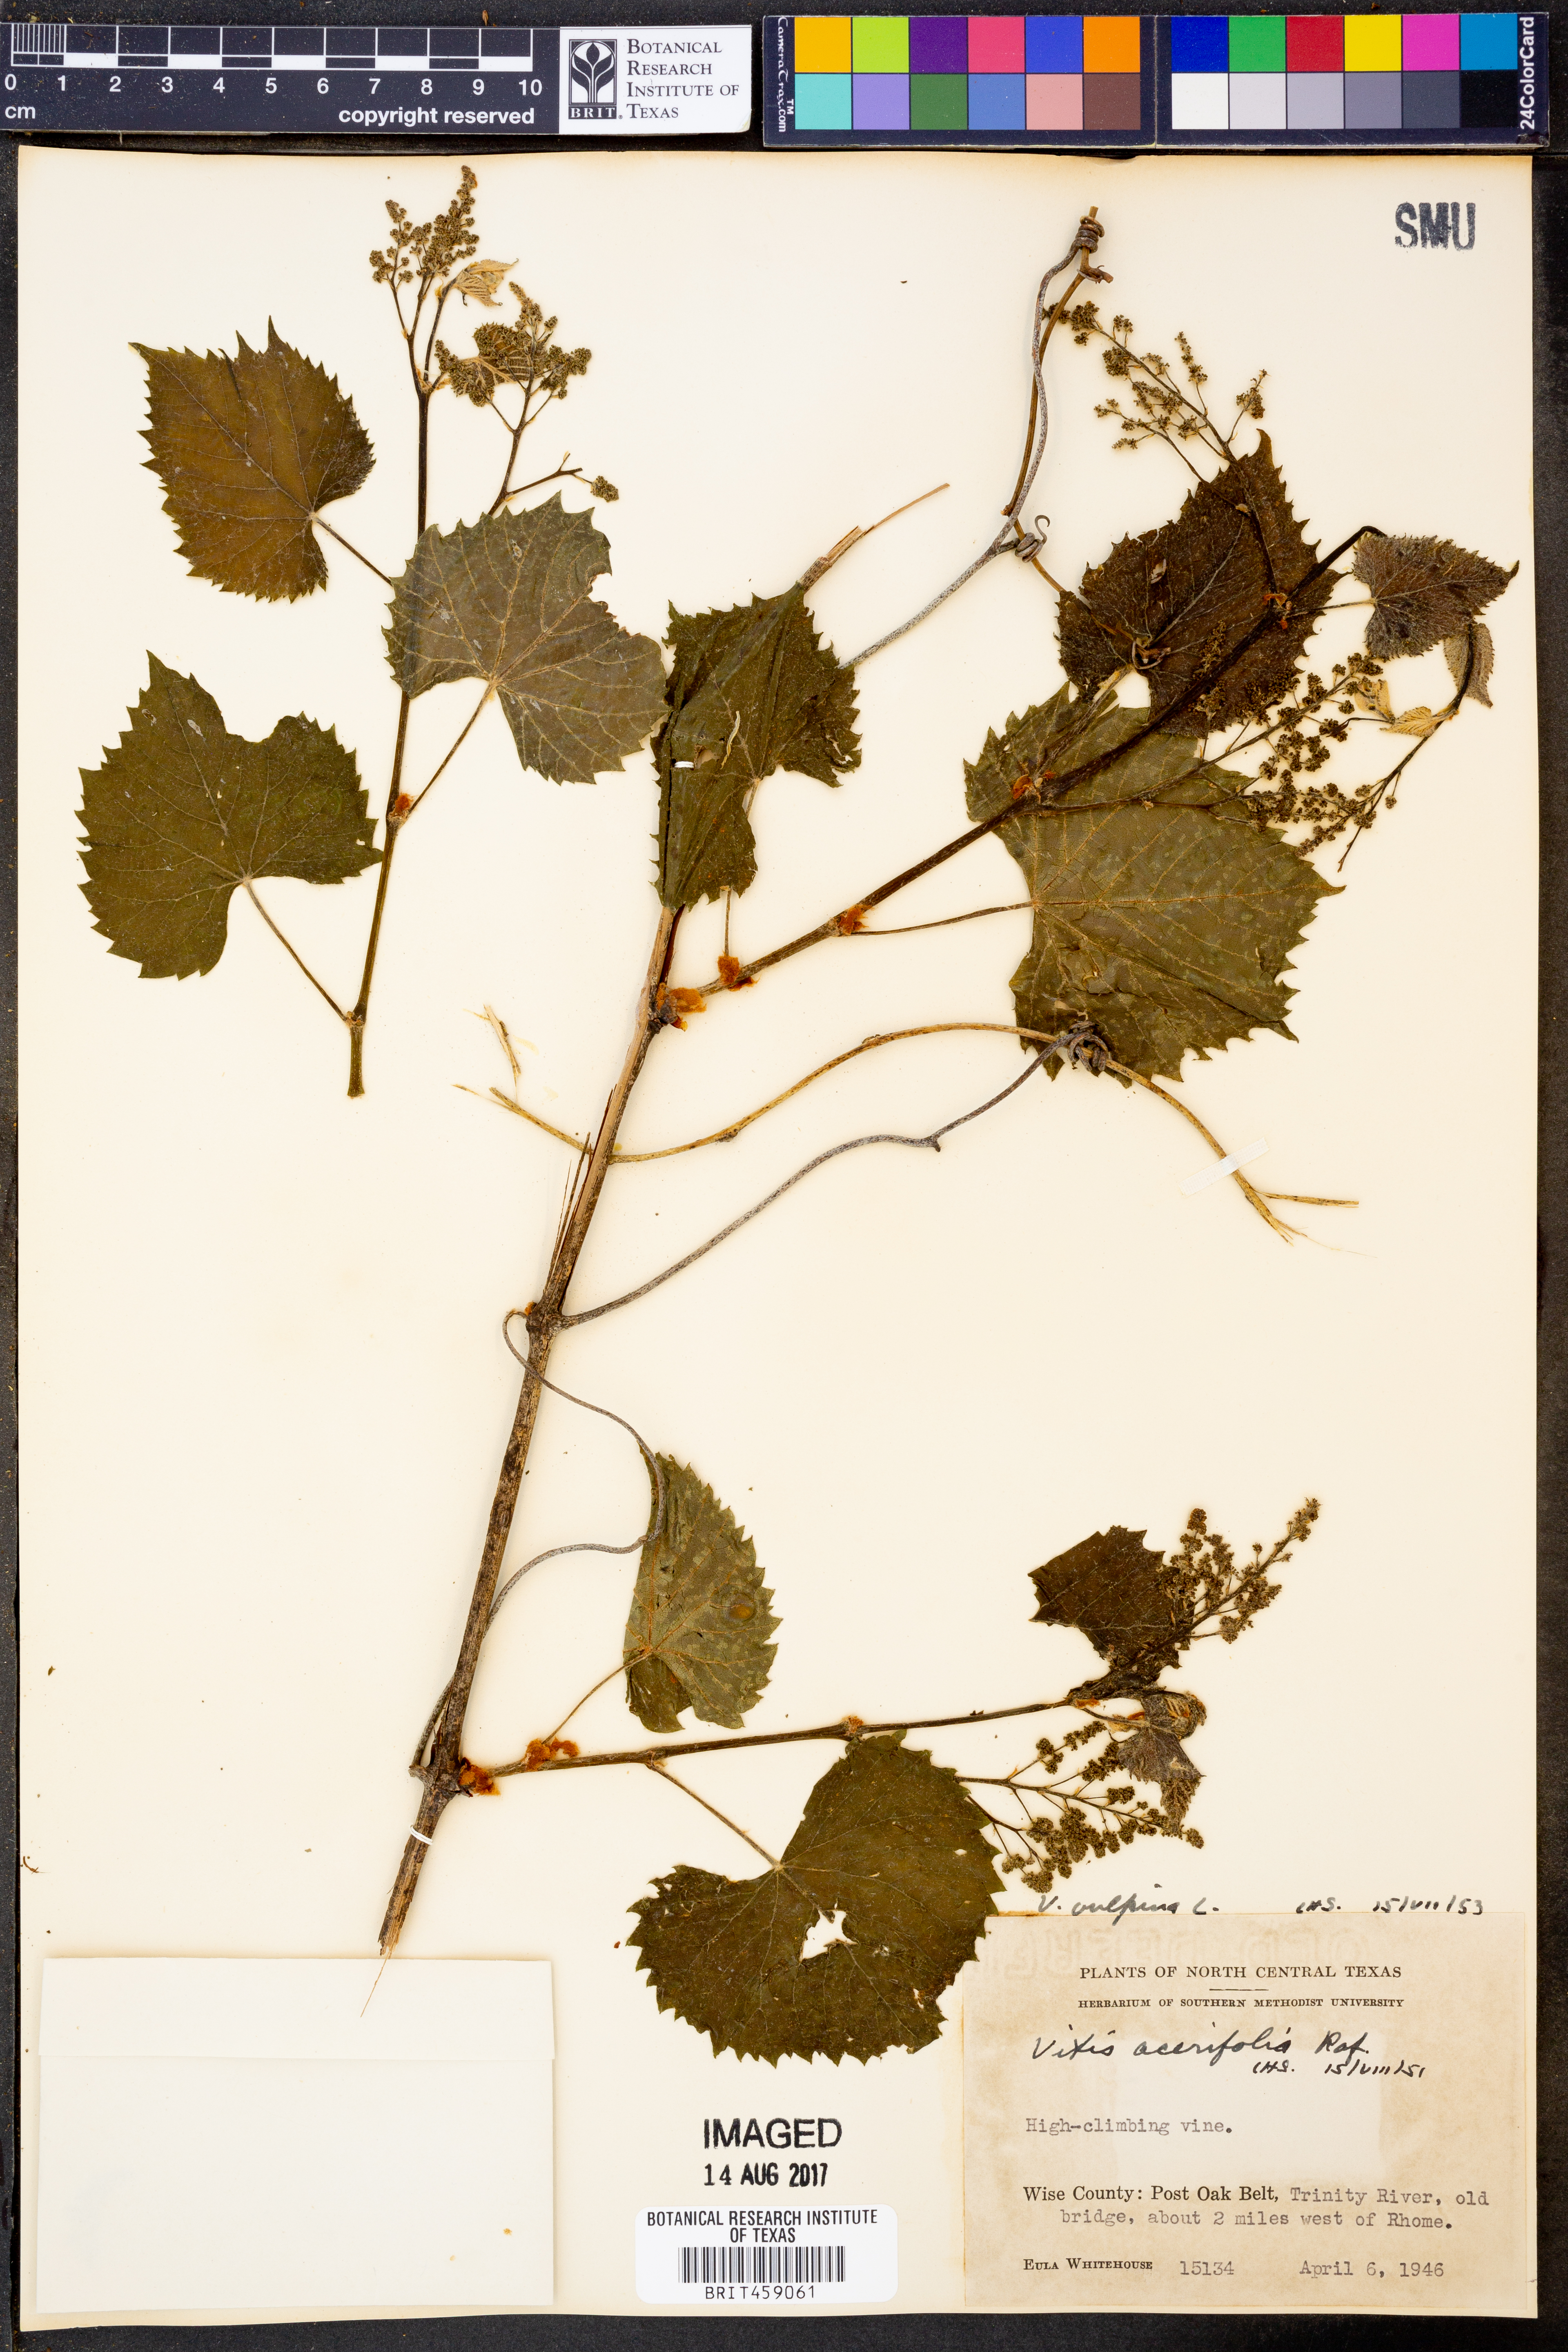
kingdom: Plantae
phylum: Tracheophyta
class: Magnoliopsida
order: Vitales
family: Vitaceae
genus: Vitis
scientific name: Vitis vulpina
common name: Frost grape
